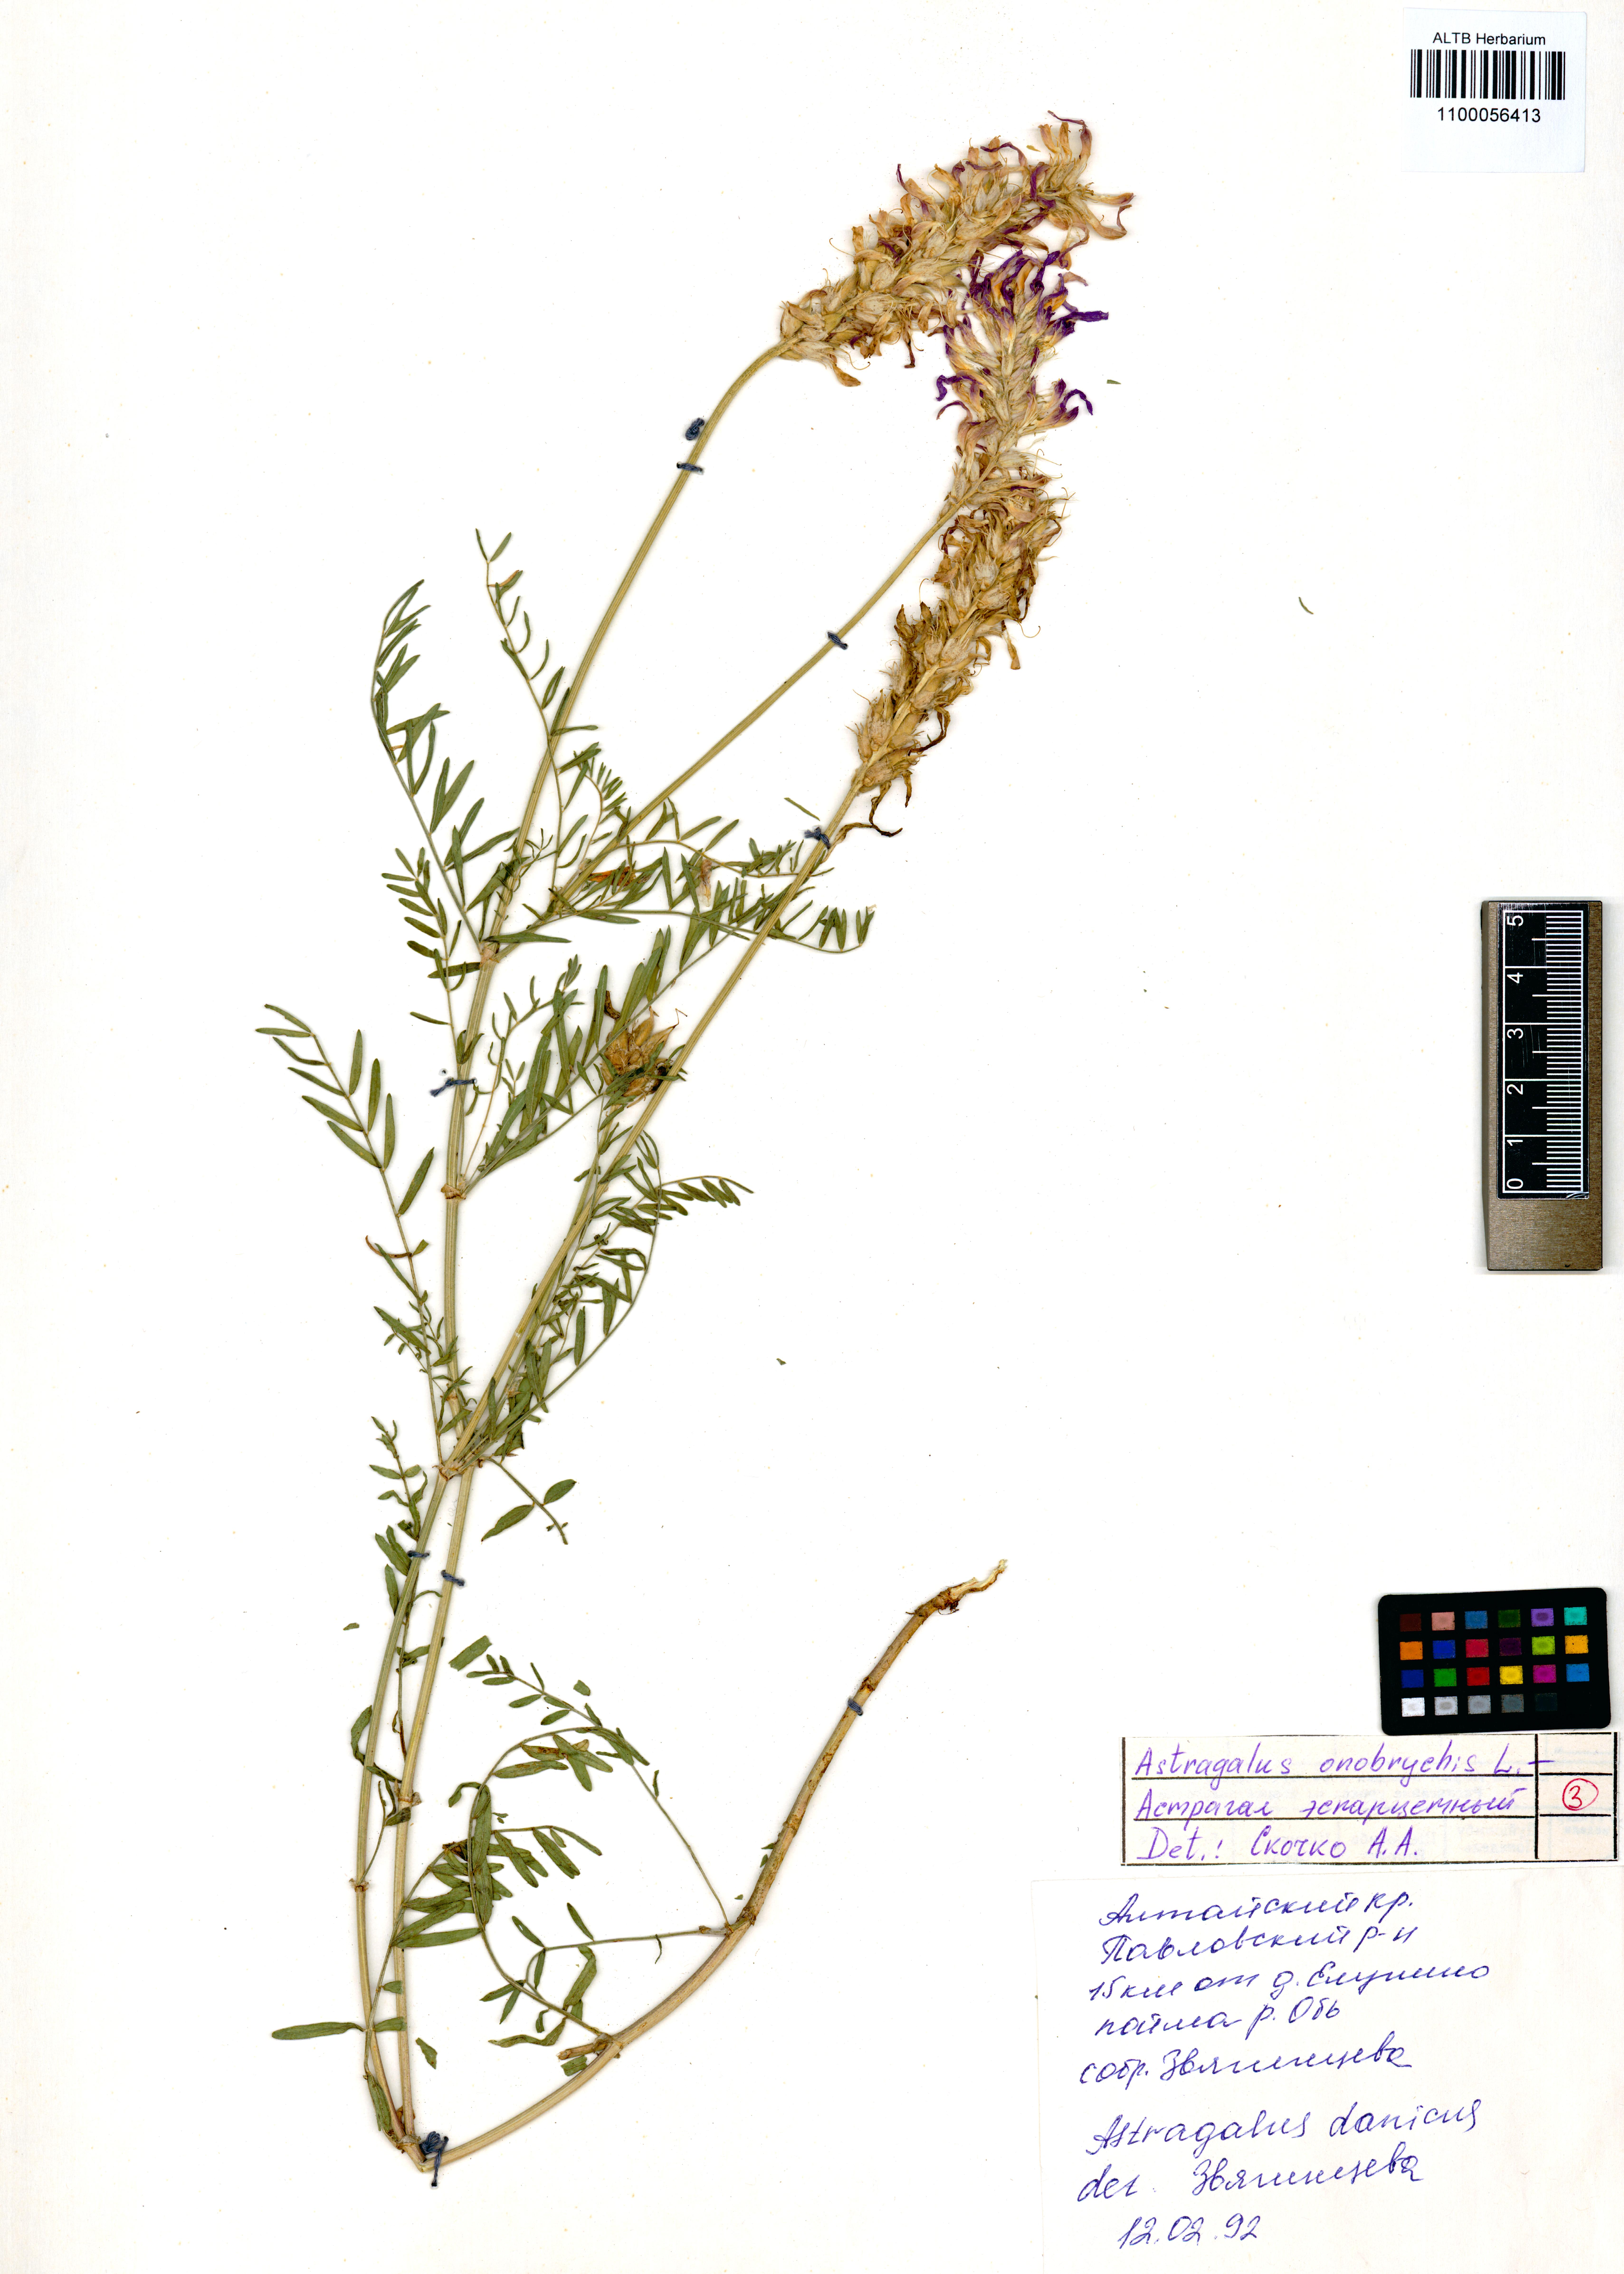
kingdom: Plantae
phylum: Tracheophyta
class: Magnoliopsida
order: Fabales
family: Fabaceae
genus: Astragalus
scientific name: Astragalus onobrychis
